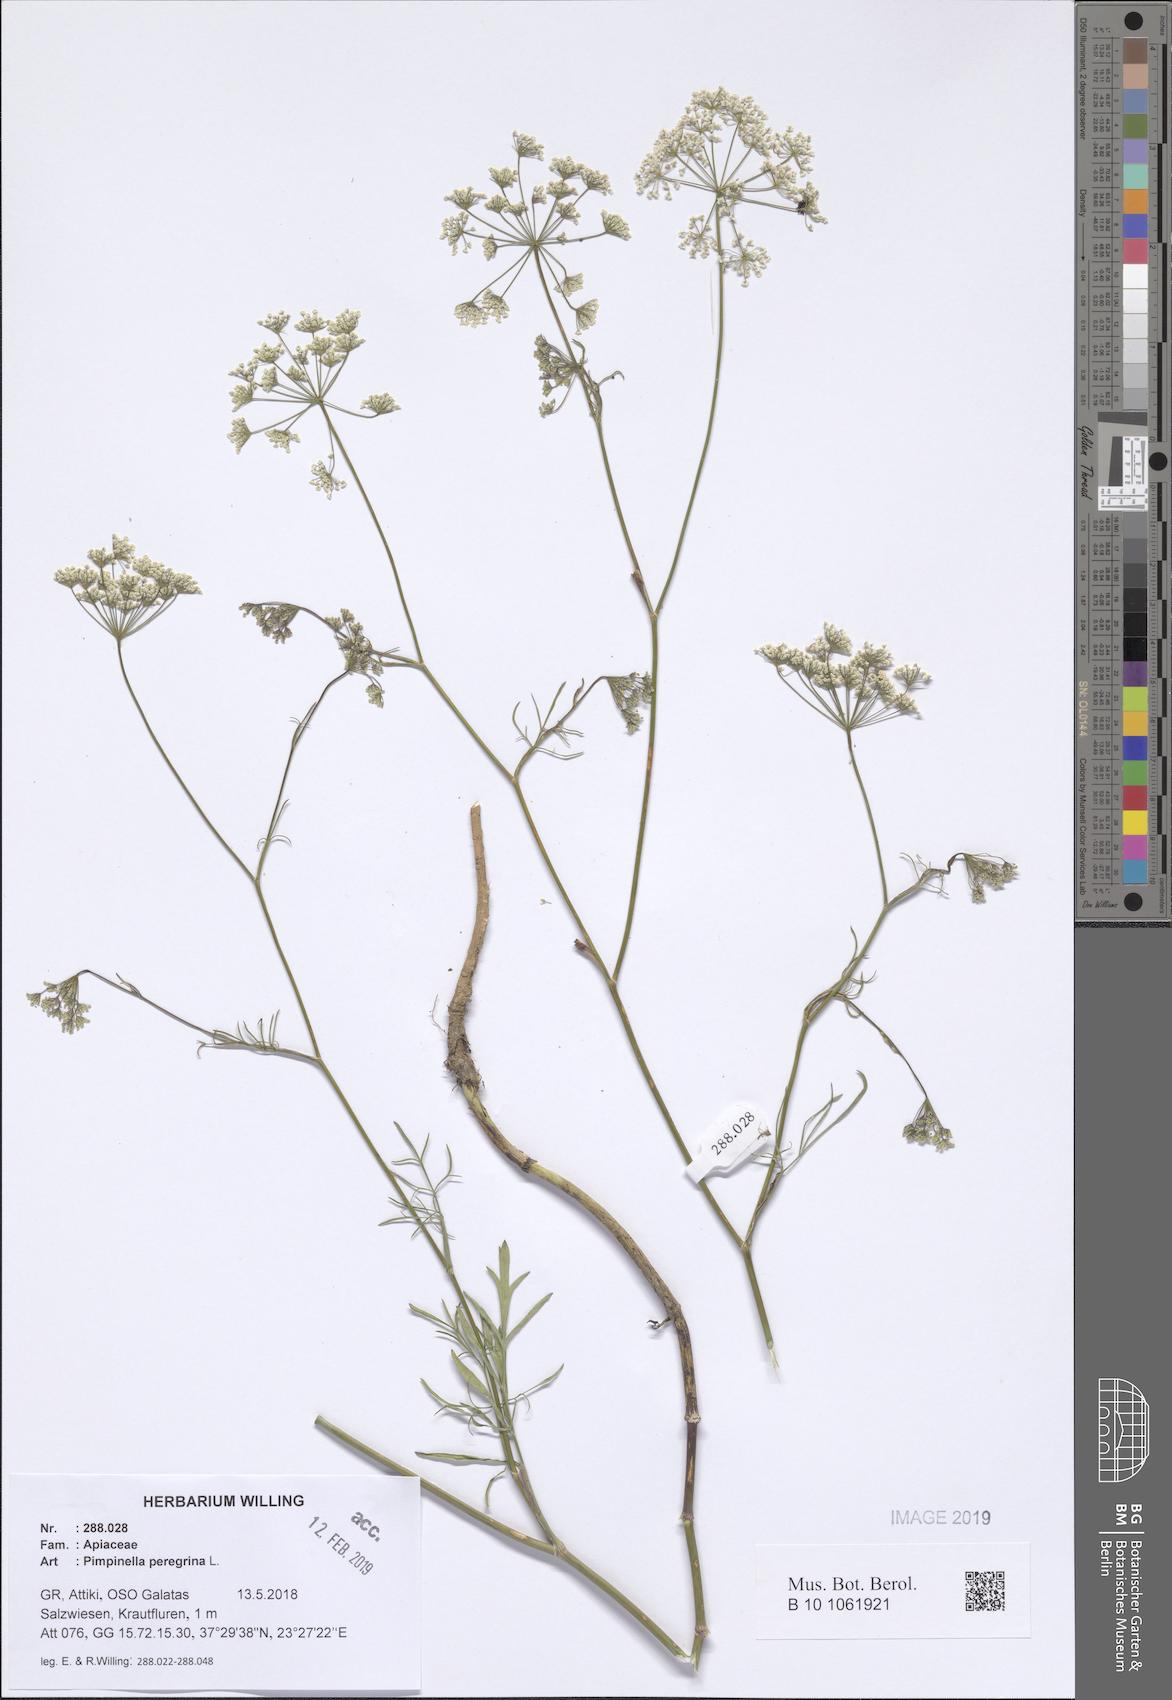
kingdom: Plantae
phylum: Tracheophyta
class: Magnoliopsida
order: Apiales
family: Apiaceae
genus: Pimpinella
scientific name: Pimpinella peregrina
